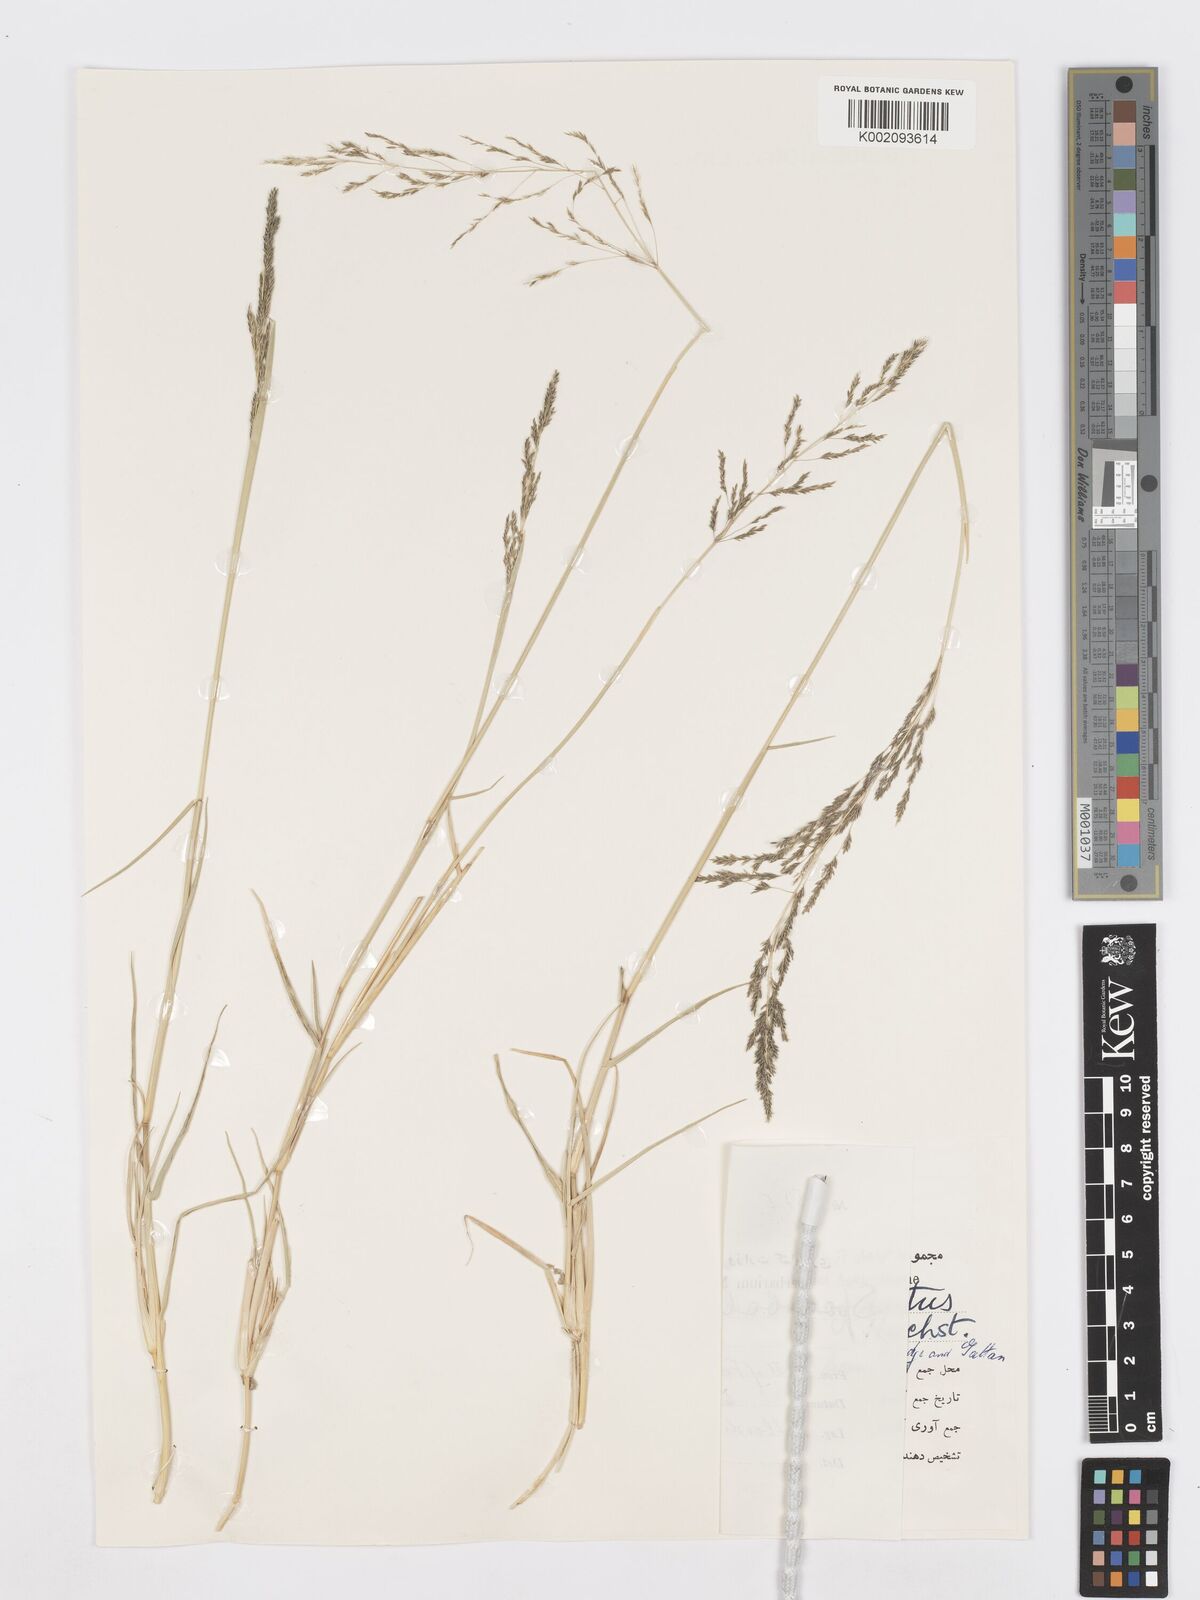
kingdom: Plantae
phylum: Tracheophyta
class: Liliopsida
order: Poales
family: Poaceae
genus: Sporobolus
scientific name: Sporobolus ioclados
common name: Pan dropseed
